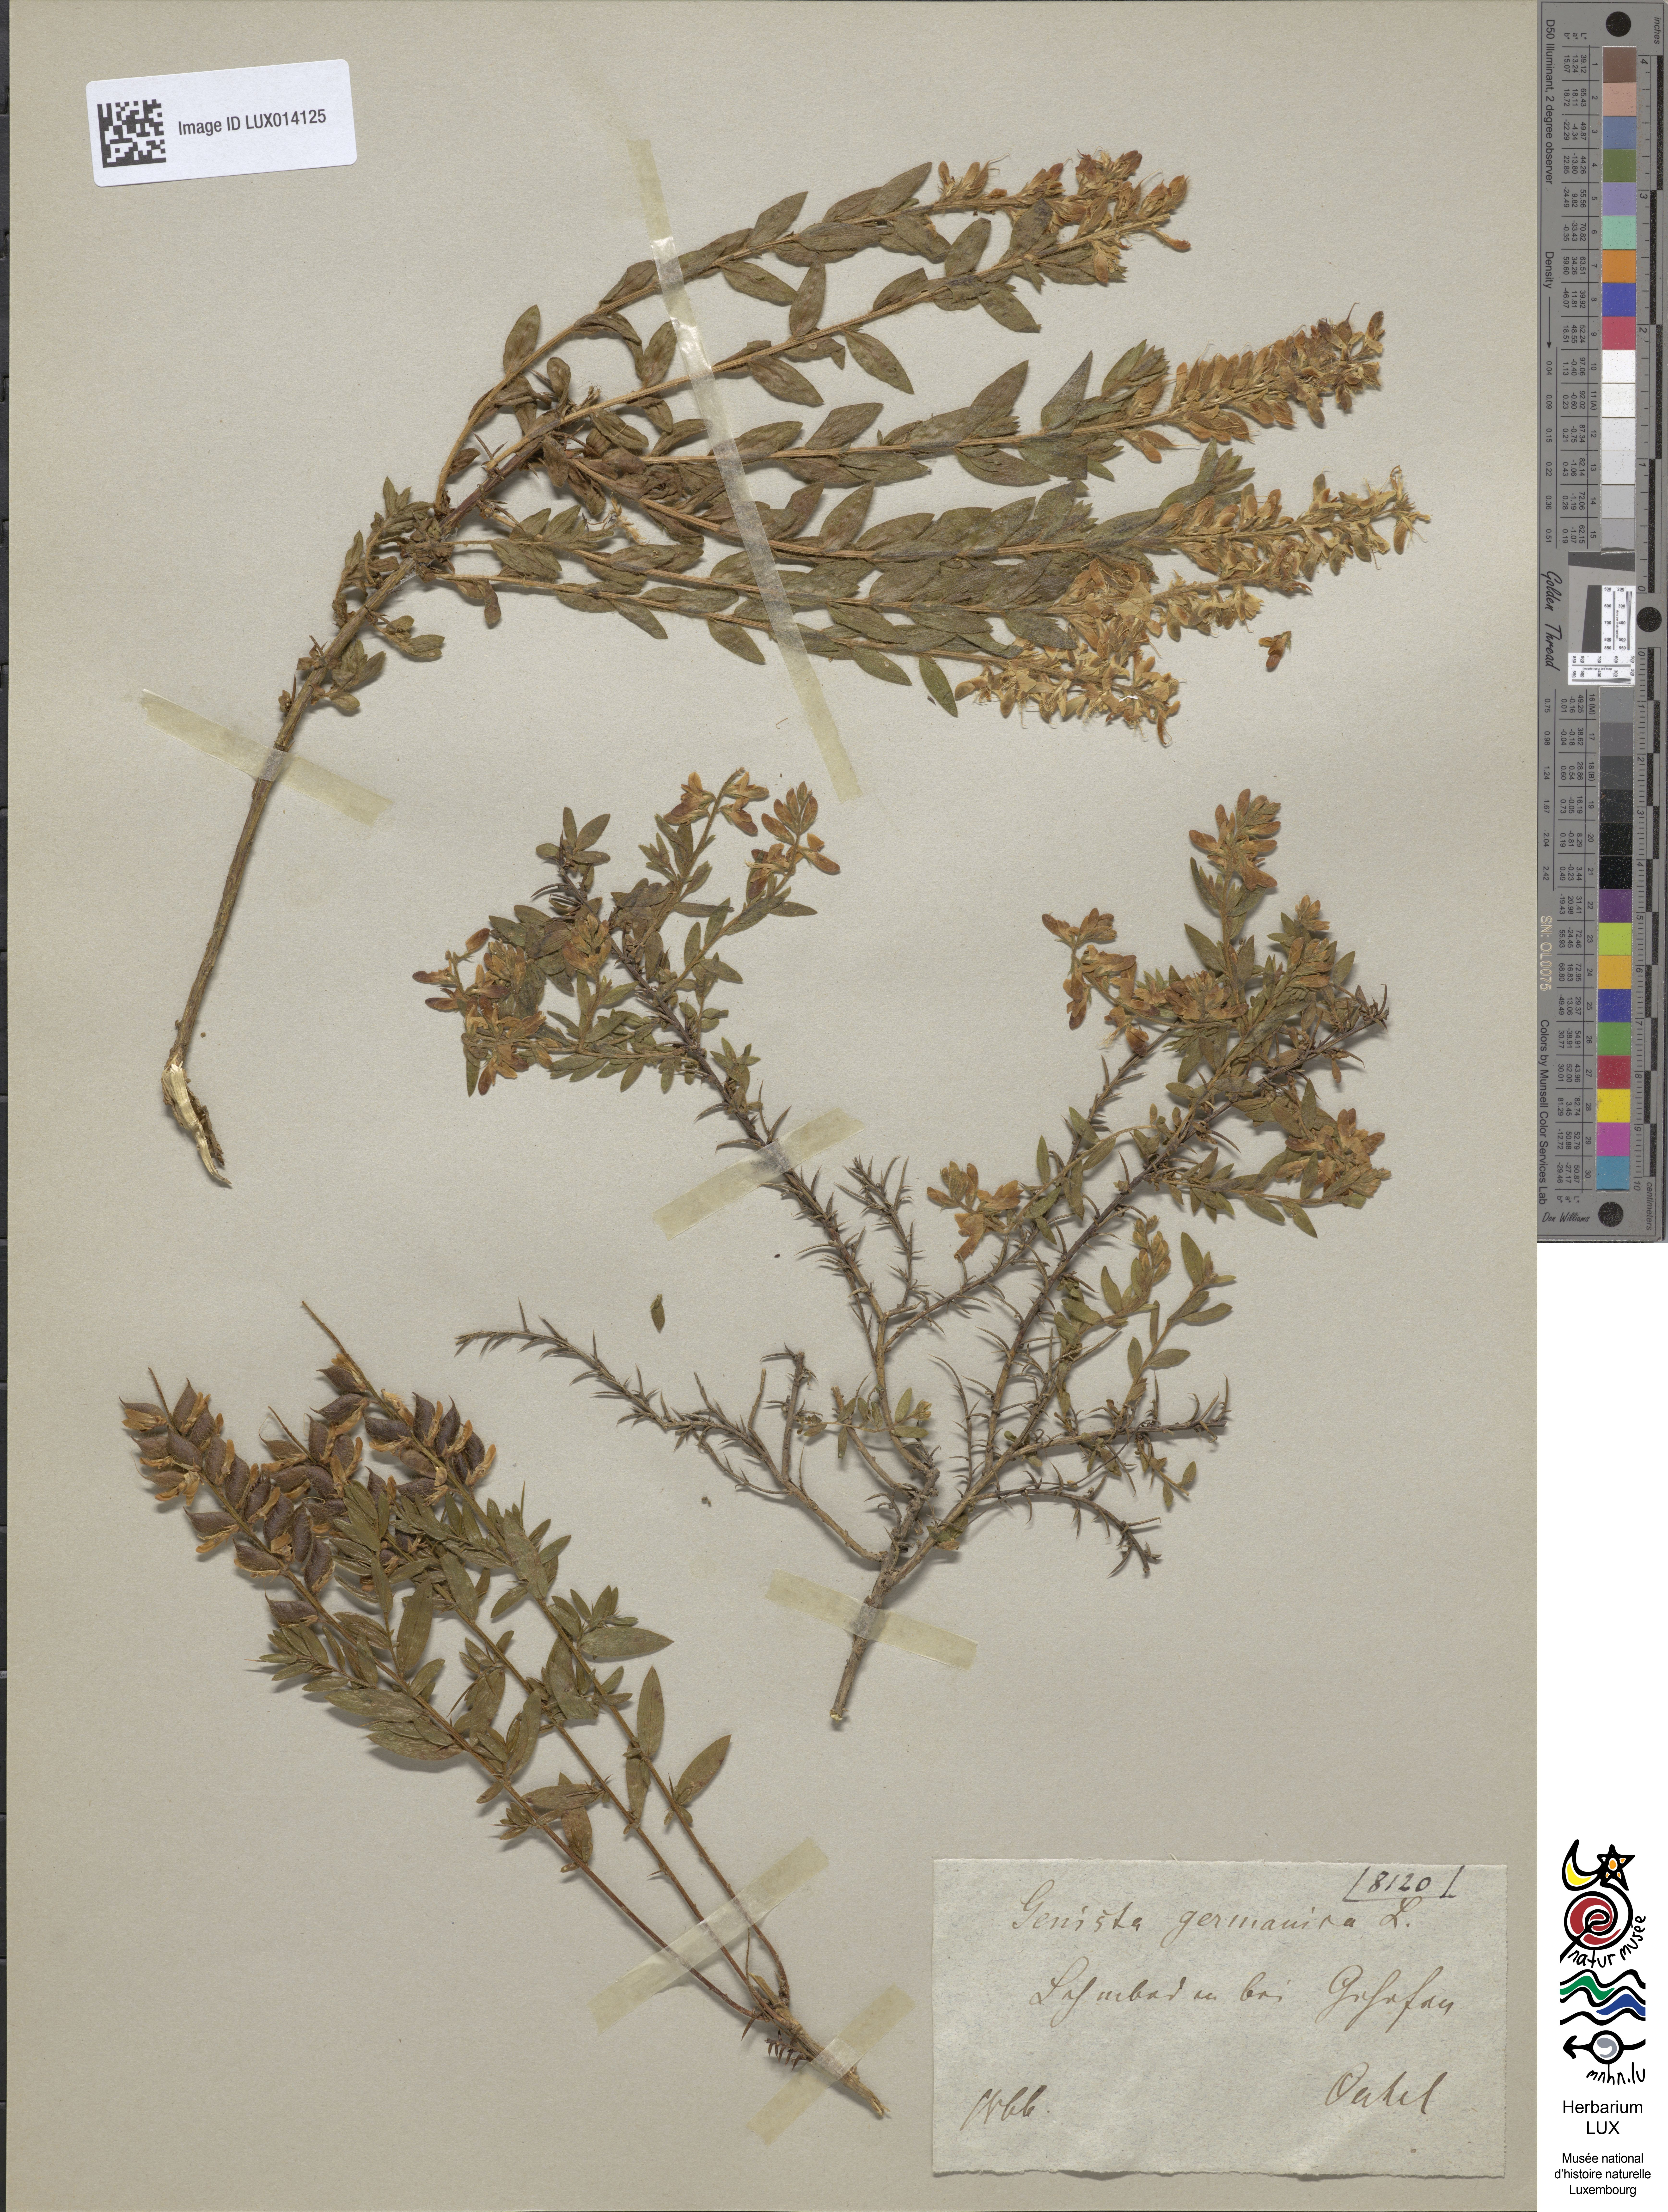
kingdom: Plantae
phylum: Tracheophyta
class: Magnoliopsida
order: Fabales
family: Fabaceae
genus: Genista
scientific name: Genista germanica
